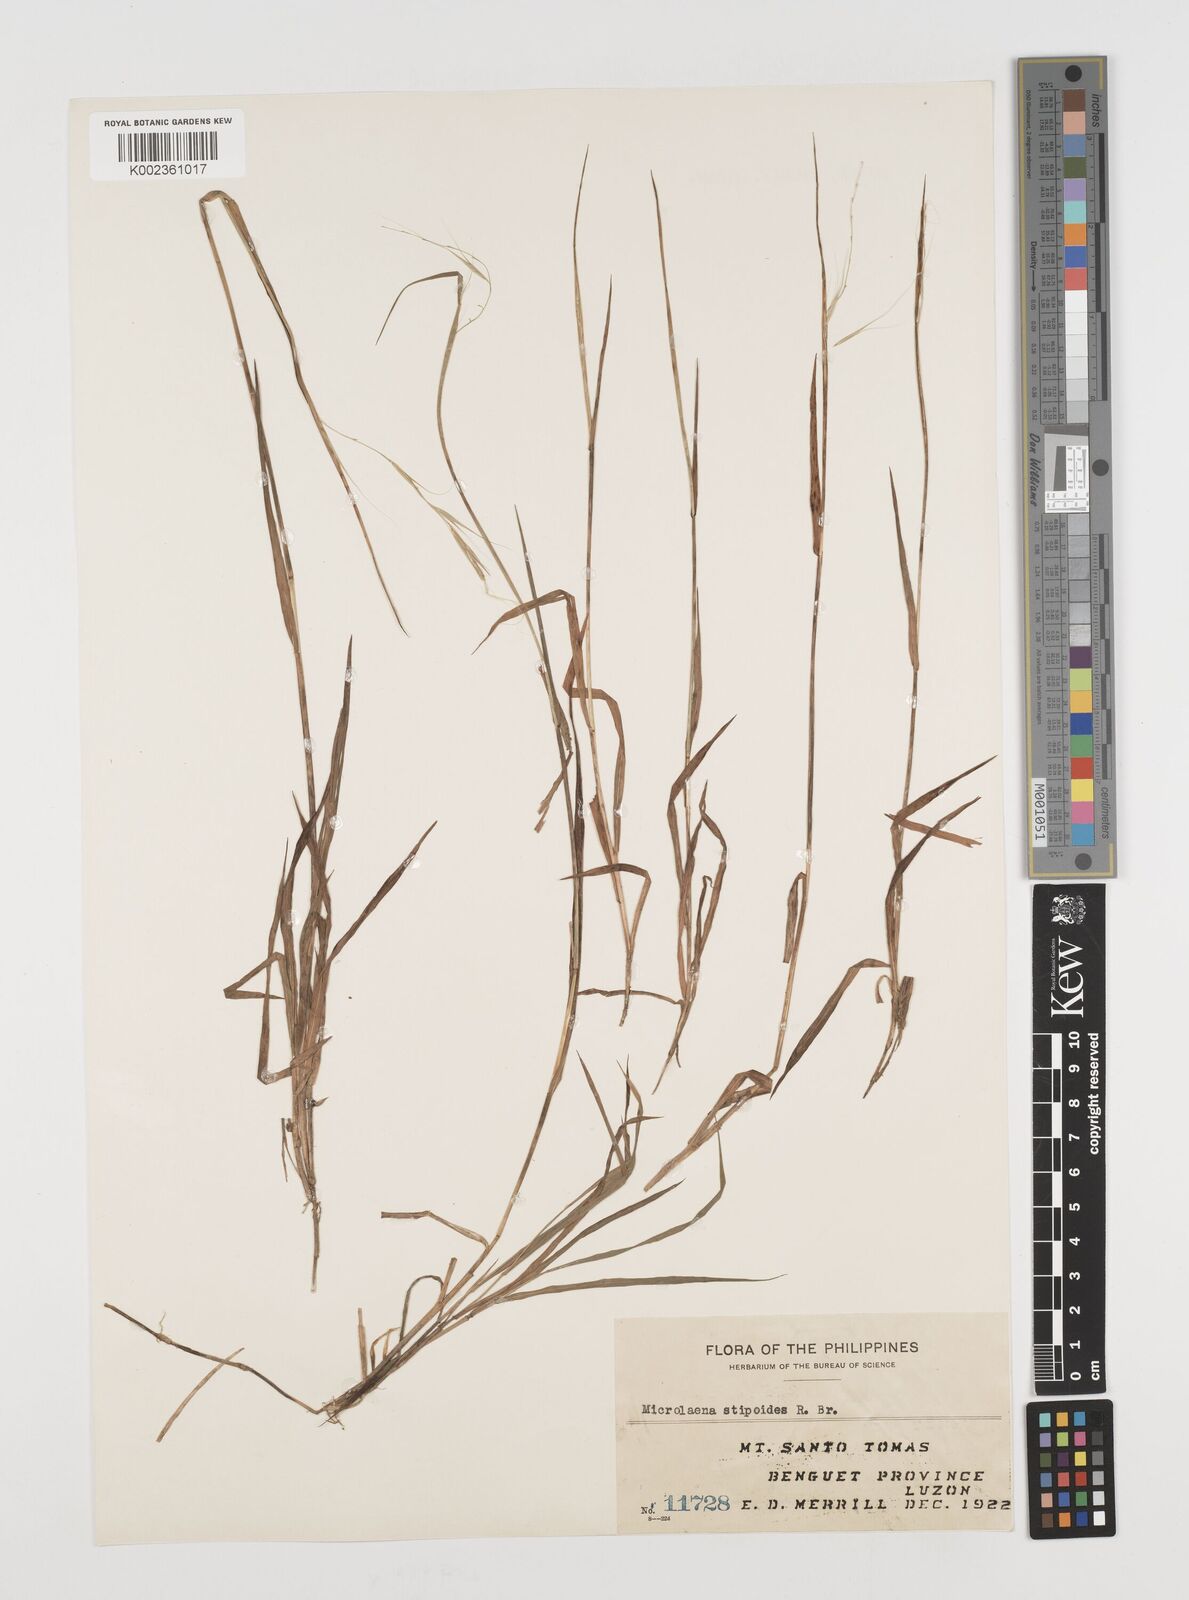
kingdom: Plantae
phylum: Tracheophyta
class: Liliopsida
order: Poales
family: Poaceae
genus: Microlaena
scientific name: Microlaena stipoides
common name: Meadow ricegrass
